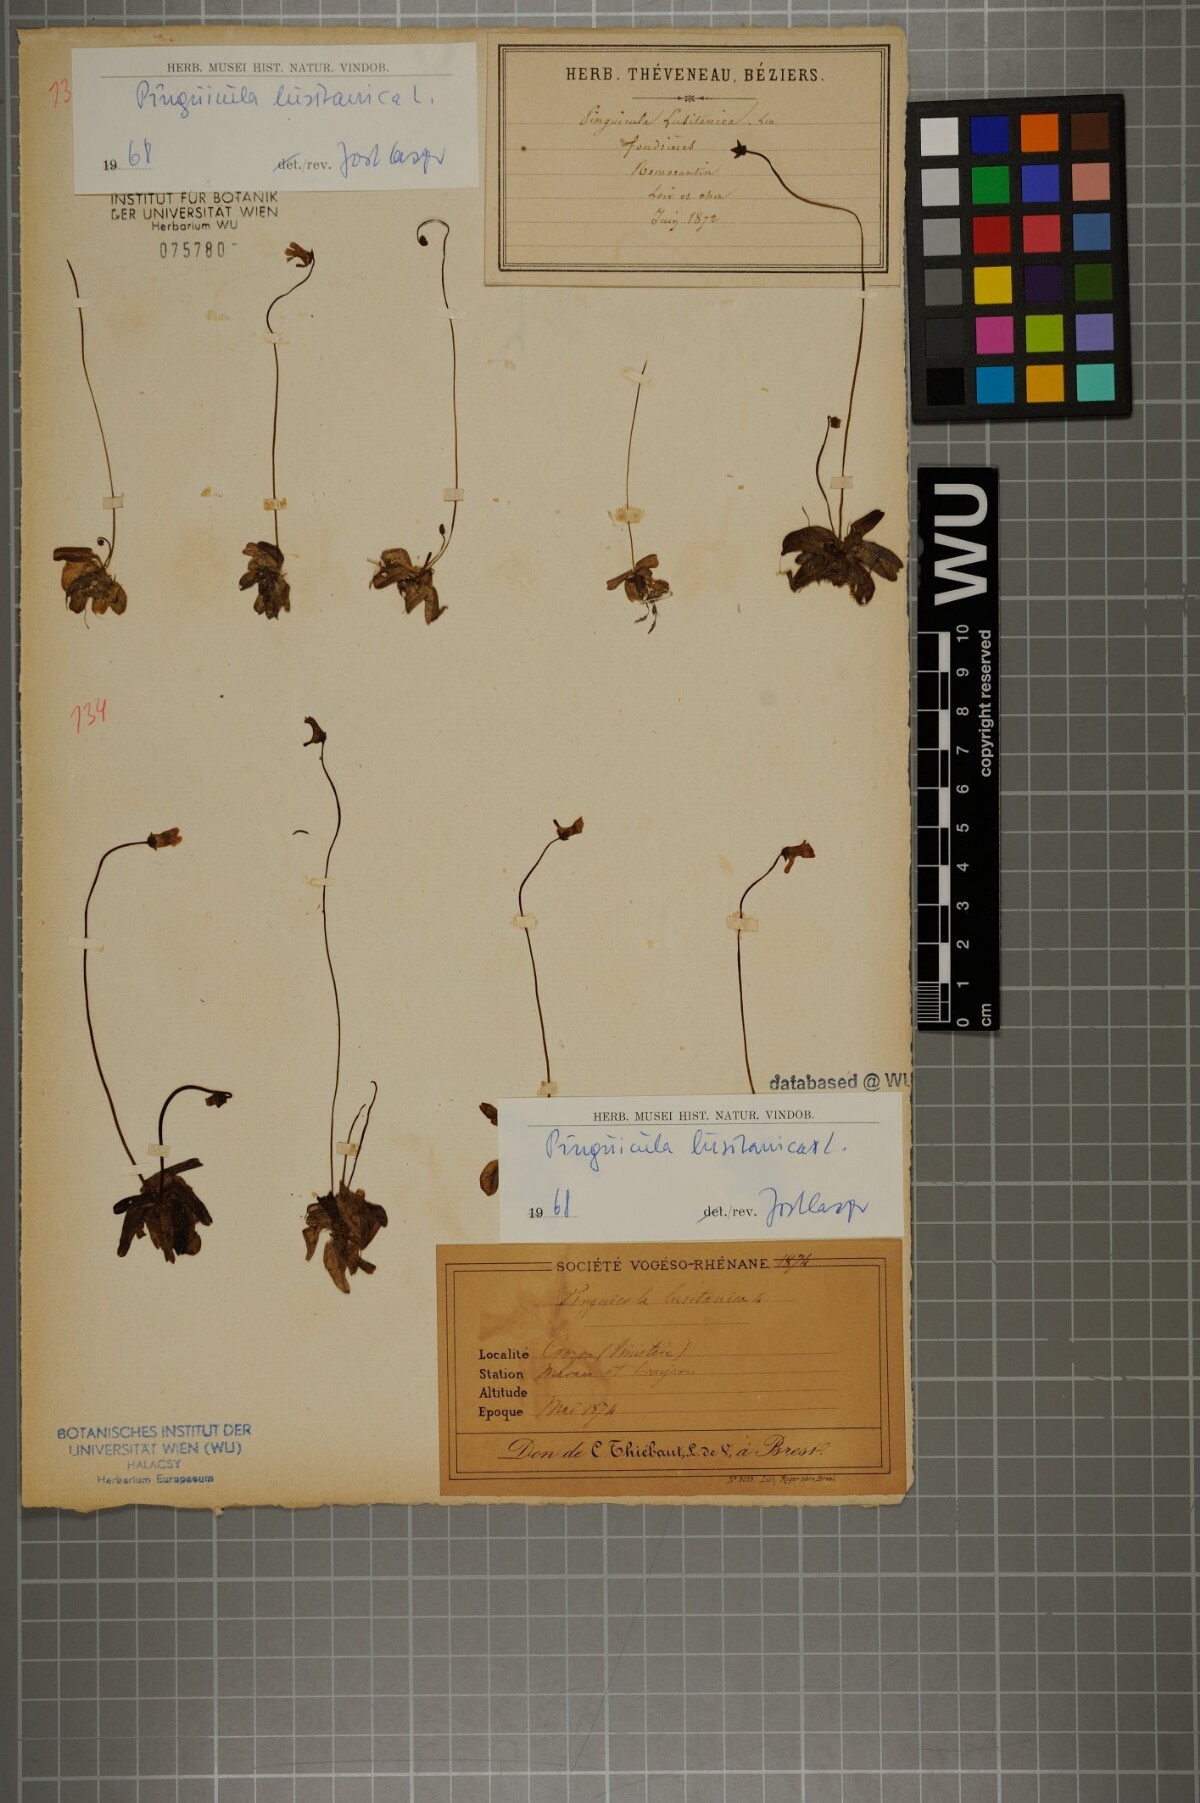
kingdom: Plantae
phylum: Tracheophyta
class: Magnoliopsida
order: Lamiales
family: Lentibulariaceae
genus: Pinguicula
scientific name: Pinguicula lusitanica
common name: Pale butterwort
